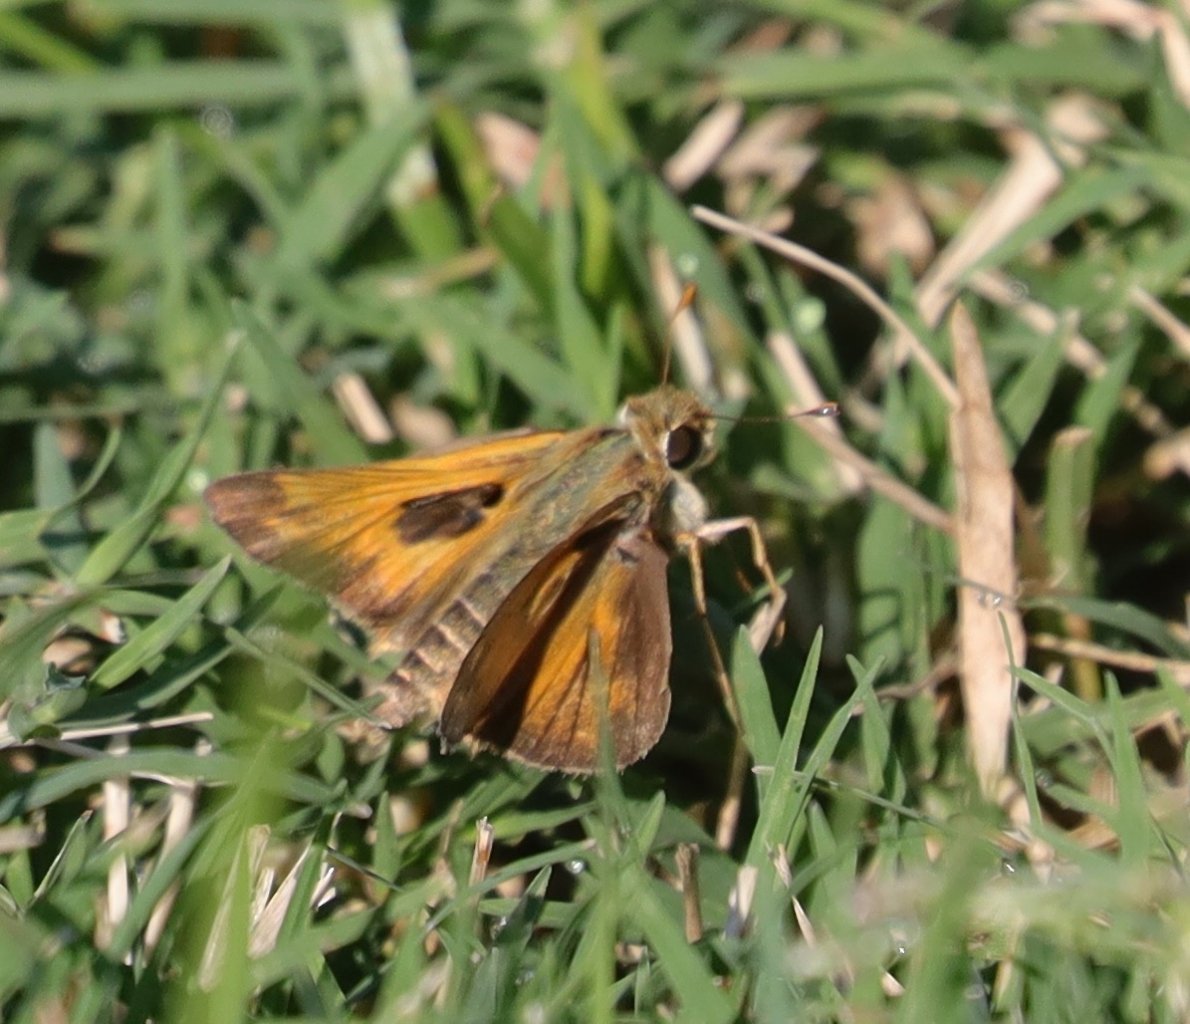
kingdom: Animalia
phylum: Arthropoda
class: Insecta
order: Lepidoptera
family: Hesperiidae
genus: Atalopedes
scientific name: Atalopedes campestris
